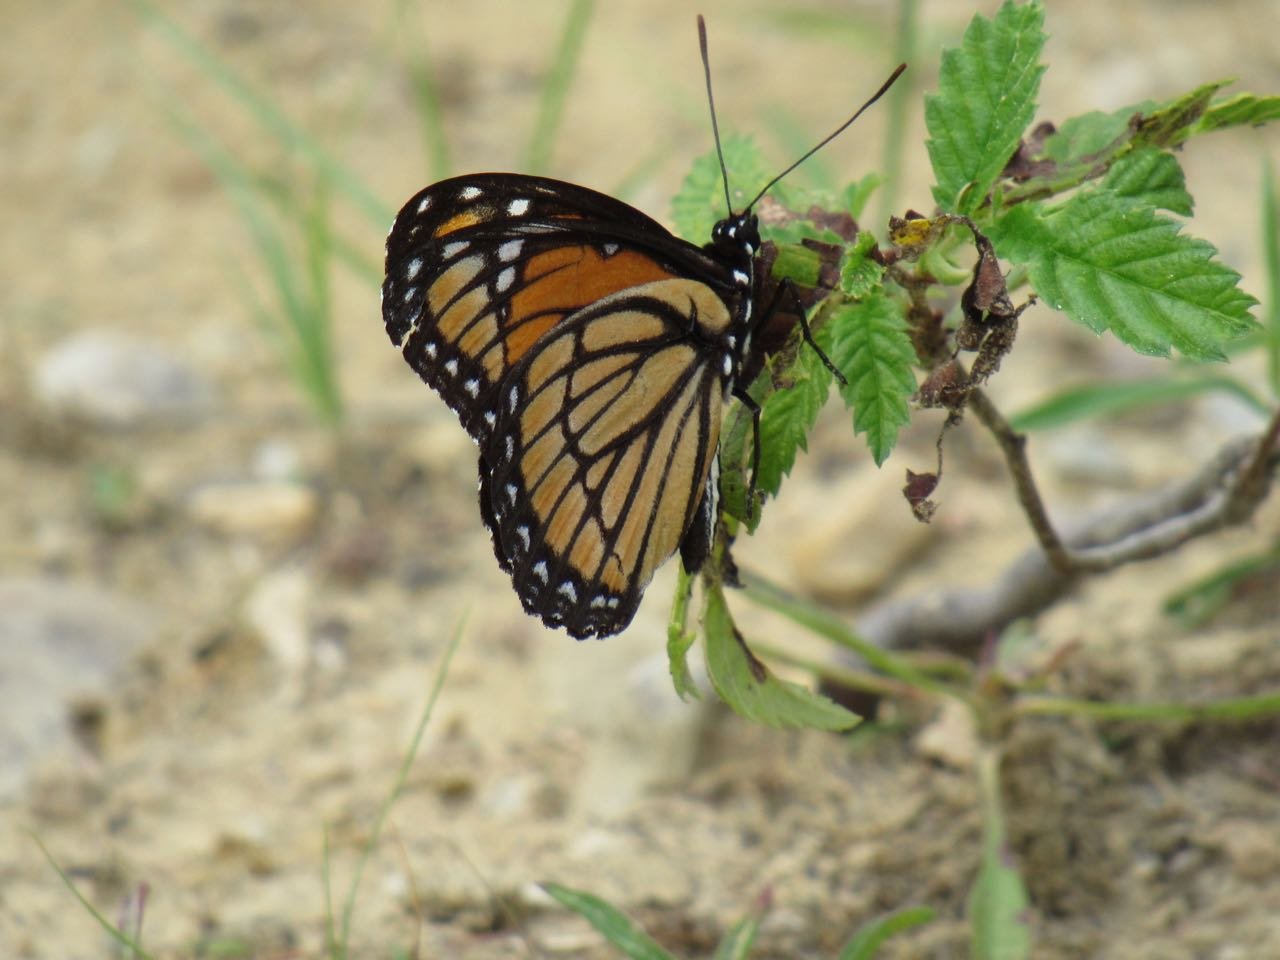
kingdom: Animalia
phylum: Arthropoda
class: Insecta
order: Lepidoptera
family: Nymphalidae
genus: Limenitis
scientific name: Limenitis archippus
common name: Viceroy
